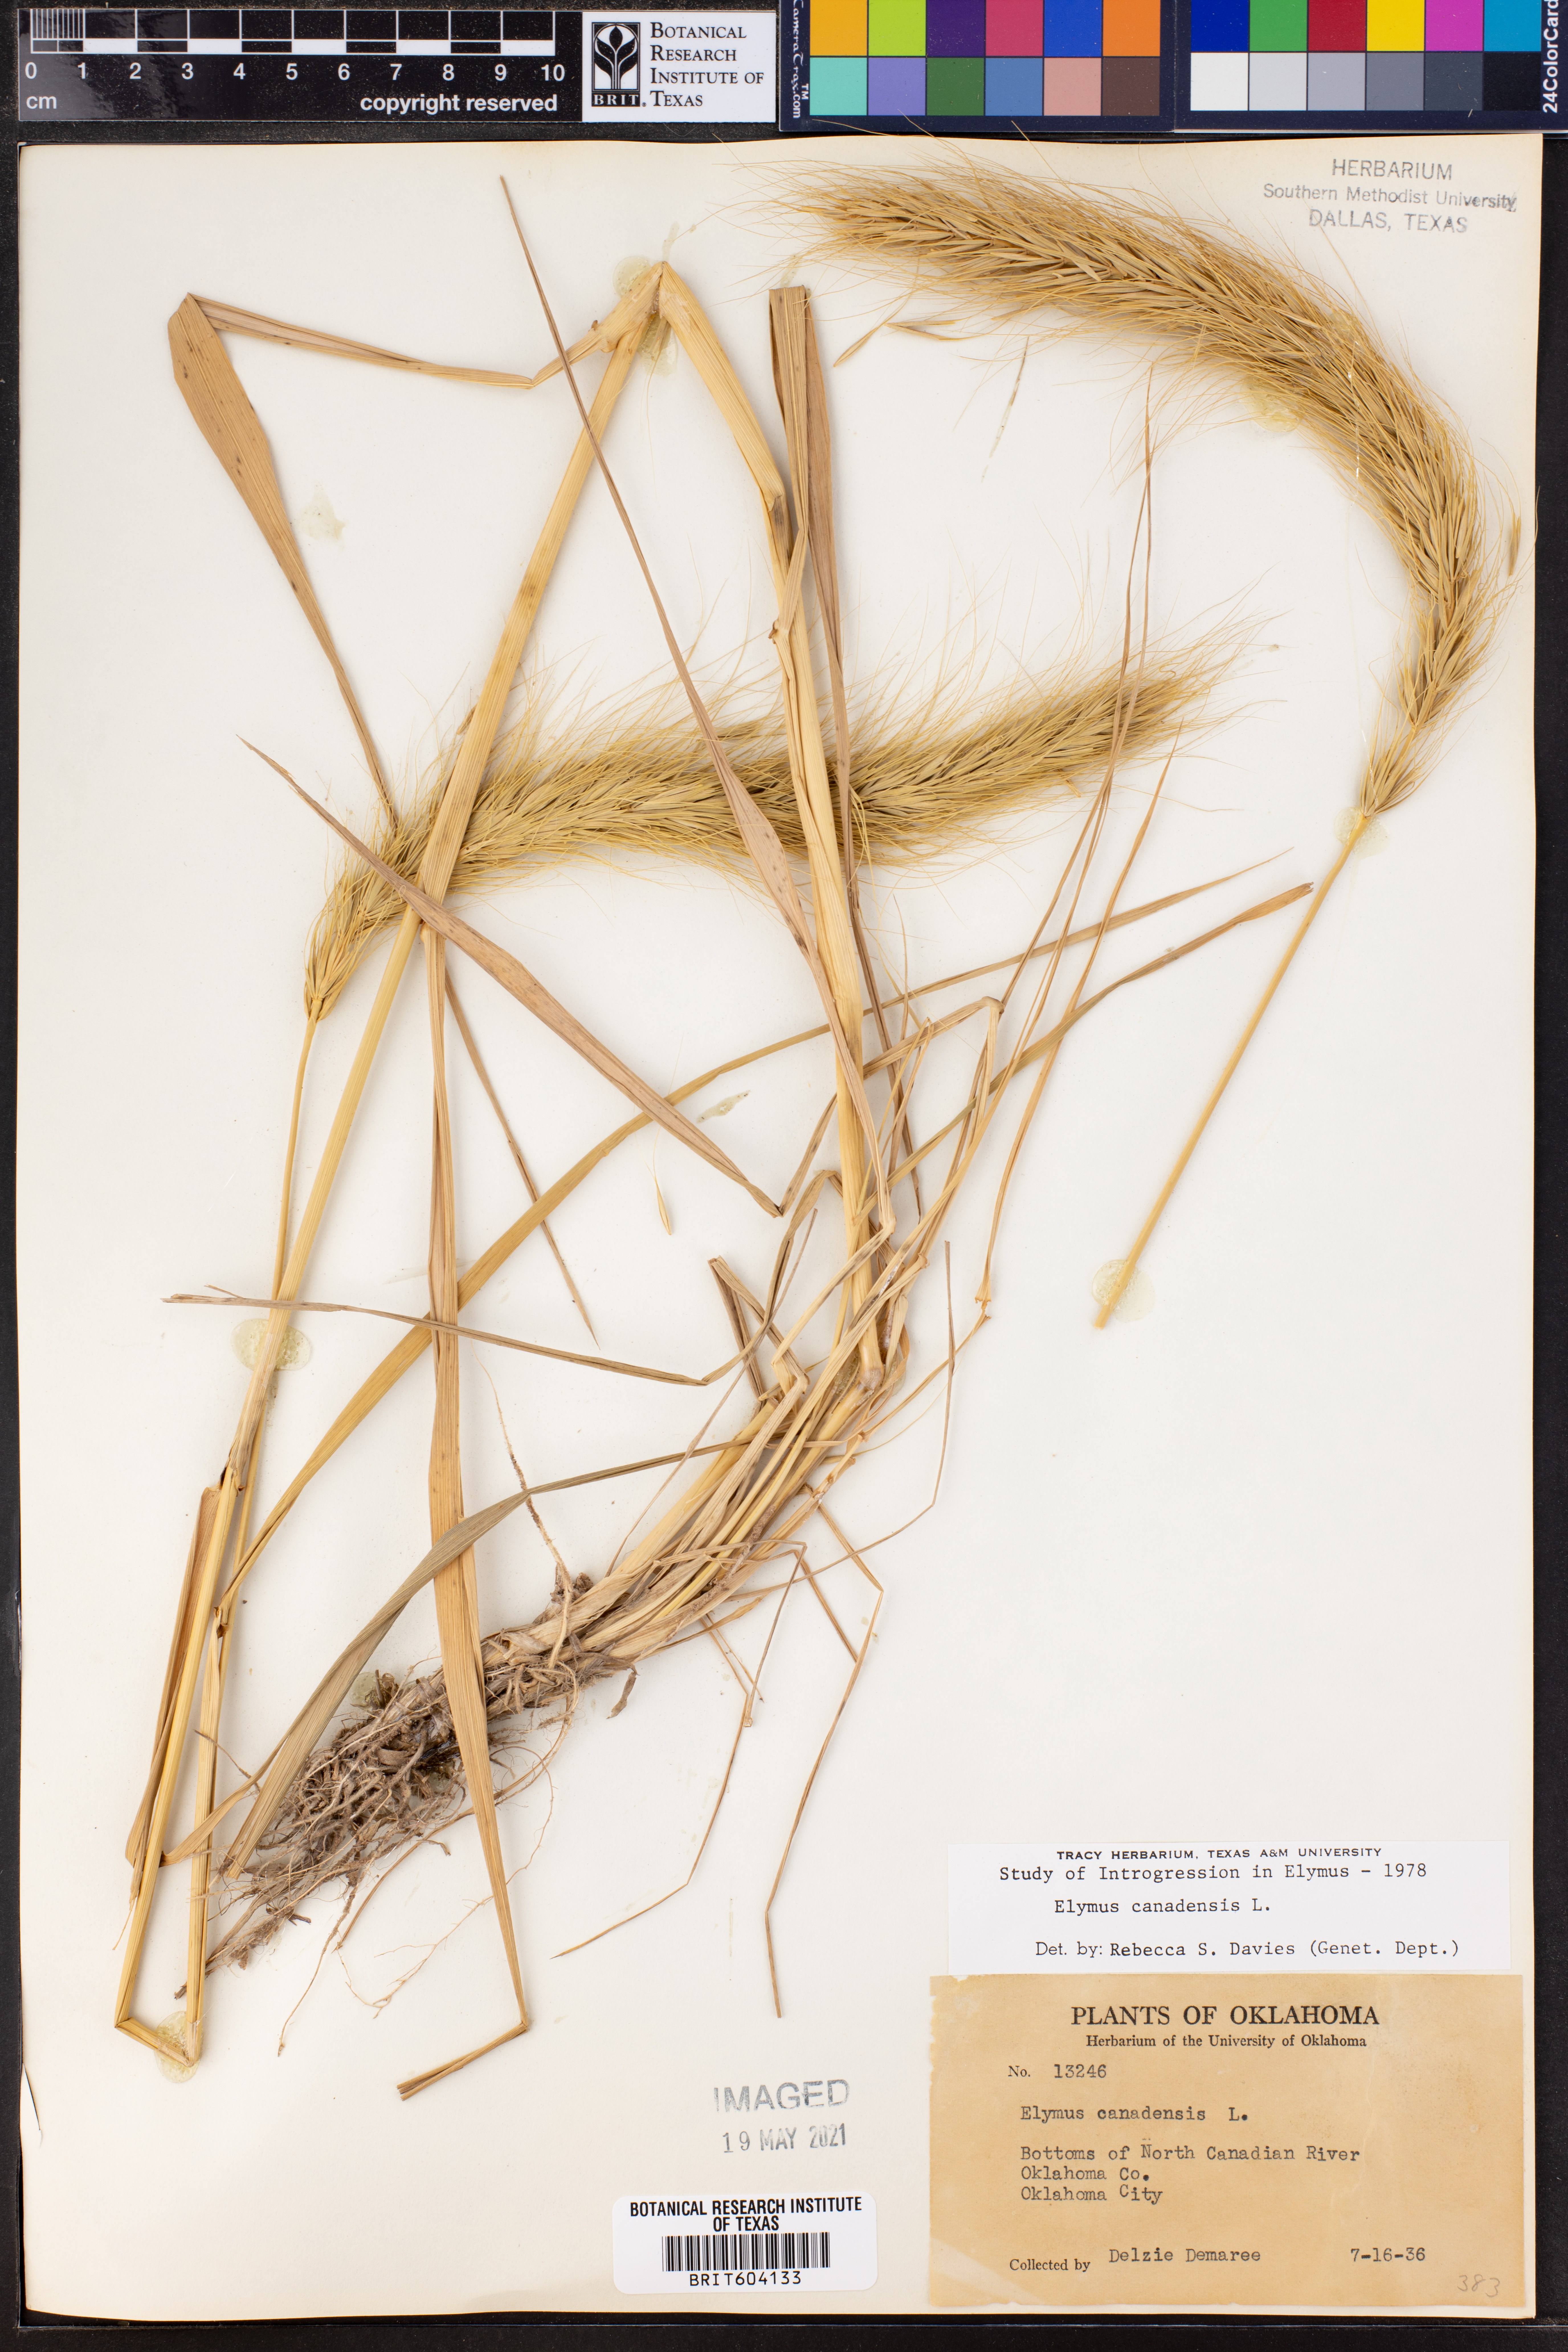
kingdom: Plantae
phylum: Tracheophyta
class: Liliopsida
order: Poales
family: Poaceae
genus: Elymus
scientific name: Elymus canadensis
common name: Canada wild rye
